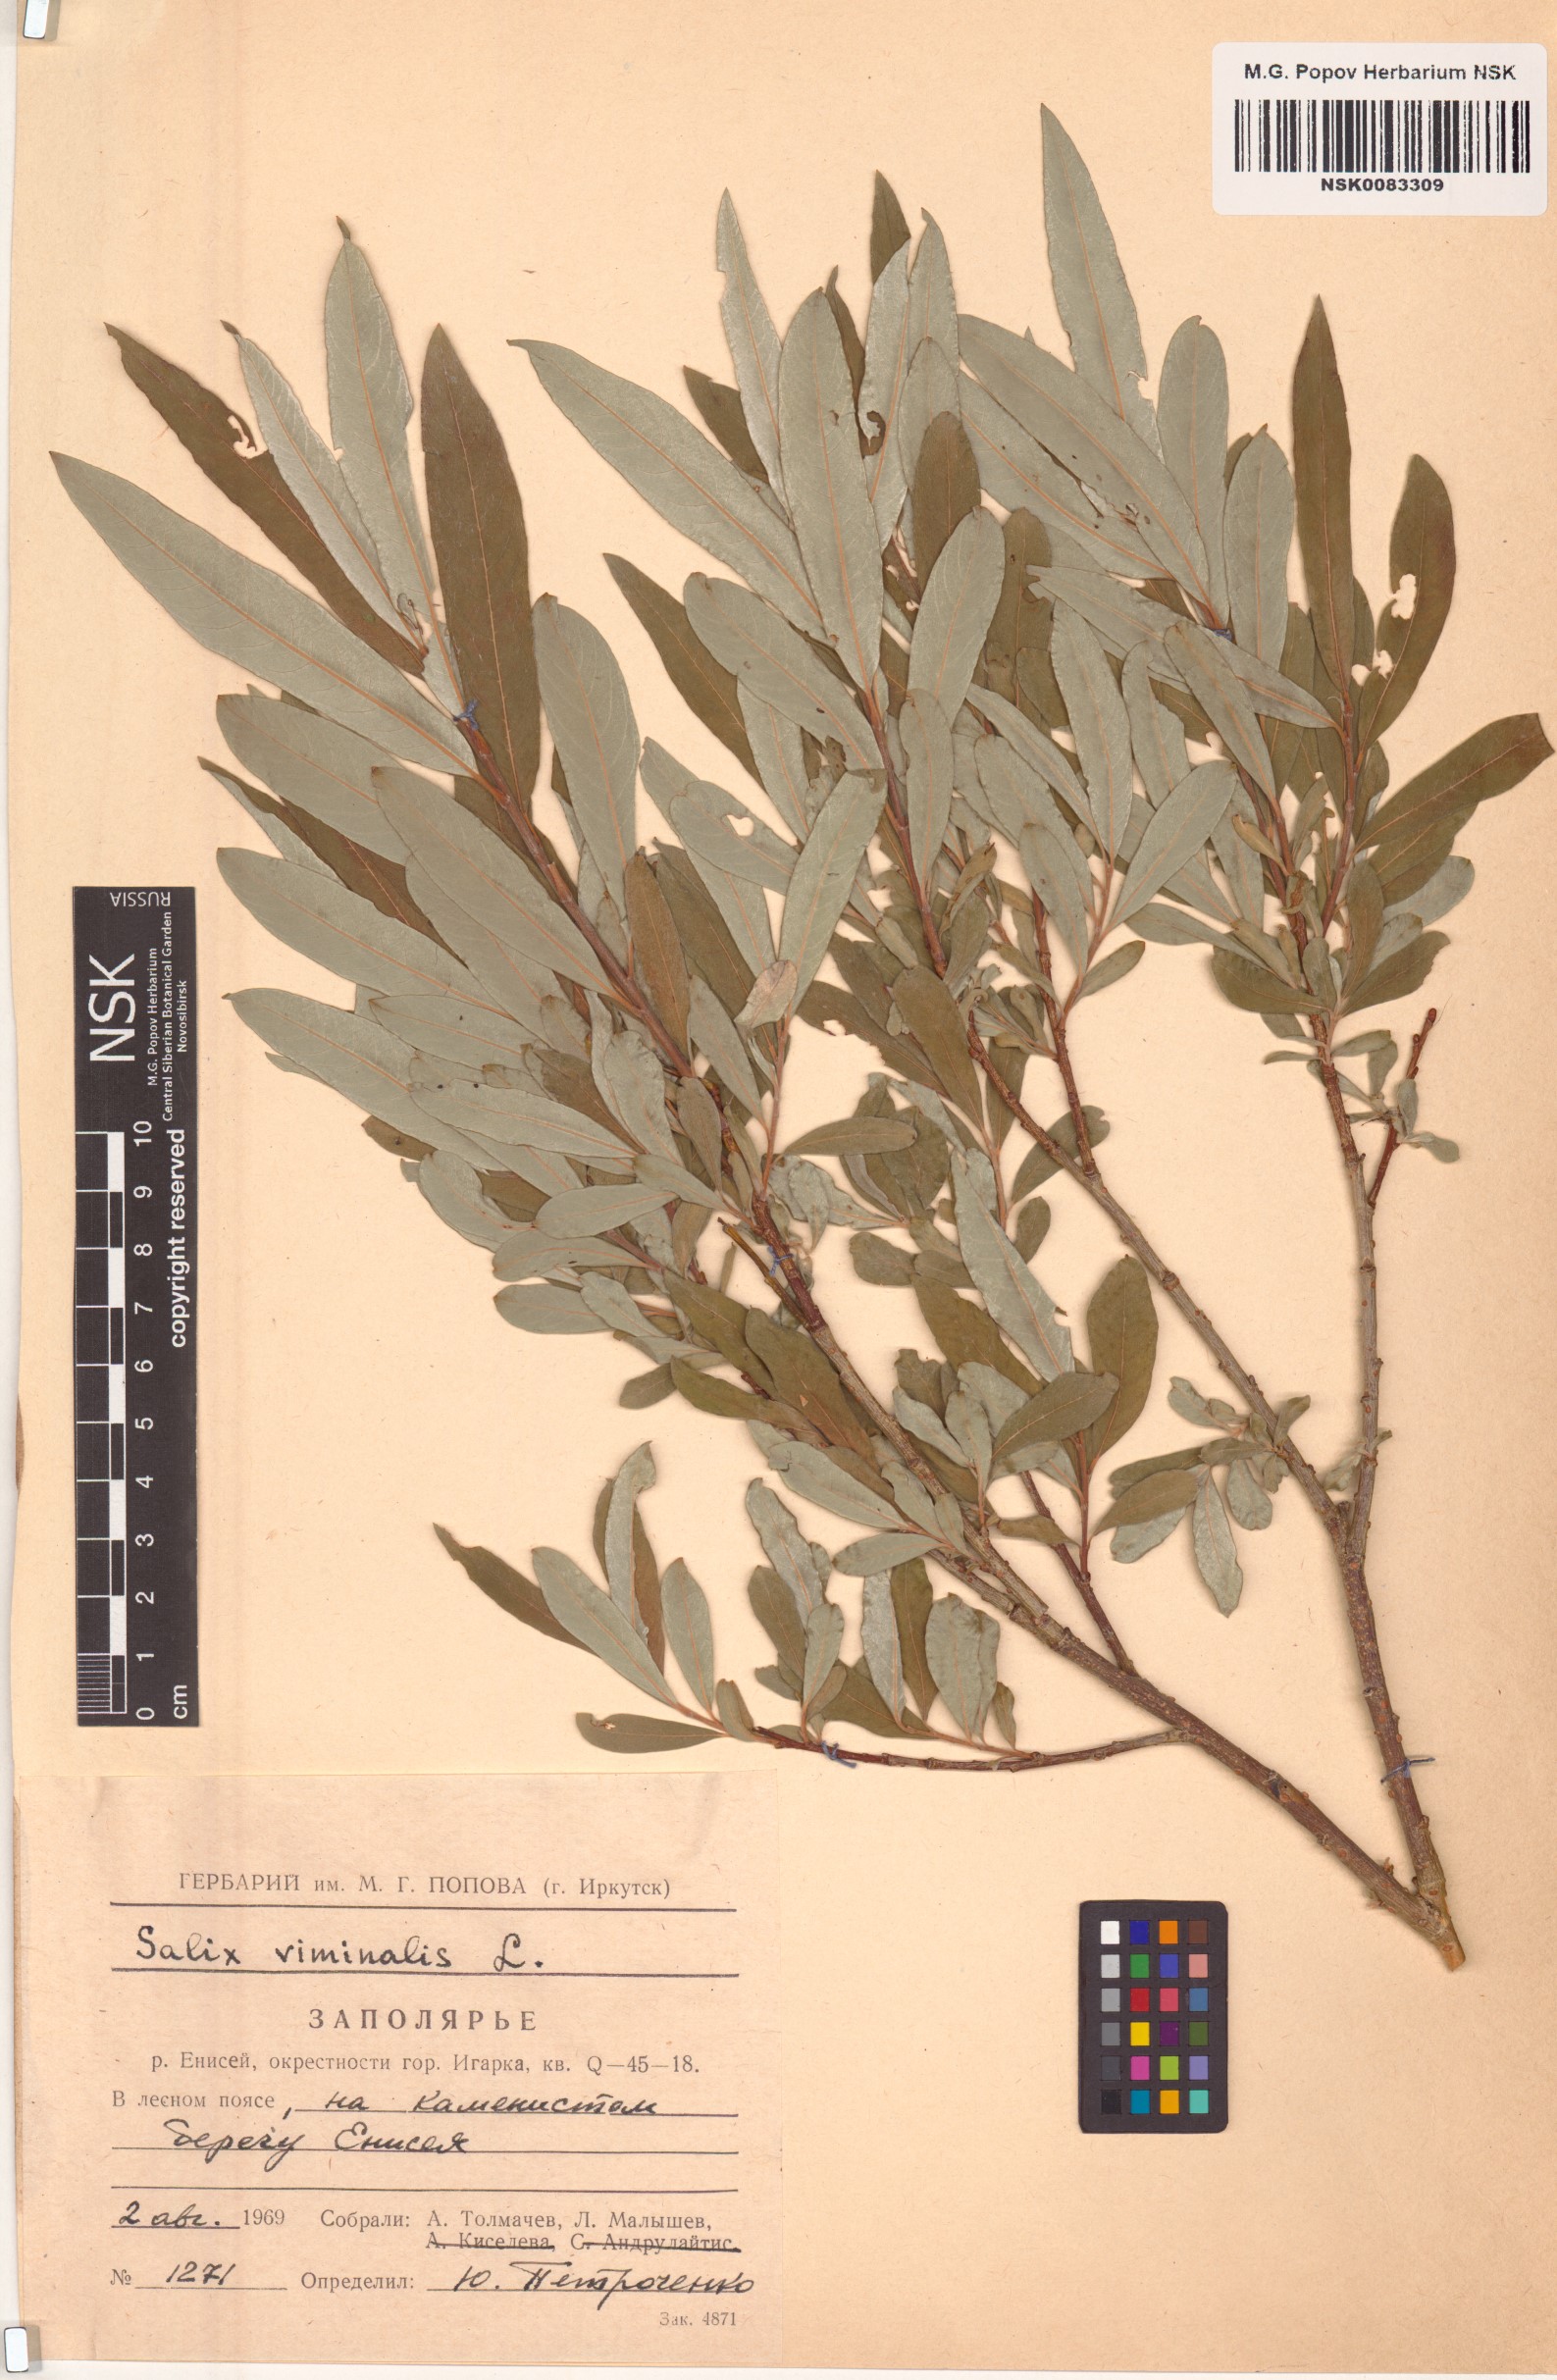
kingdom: Plantae
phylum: Tracheophyta
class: Magnoliopsida
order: Malpighiales
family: Salicaceae
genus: Salix
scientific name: Salix viminalis
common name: Osier
